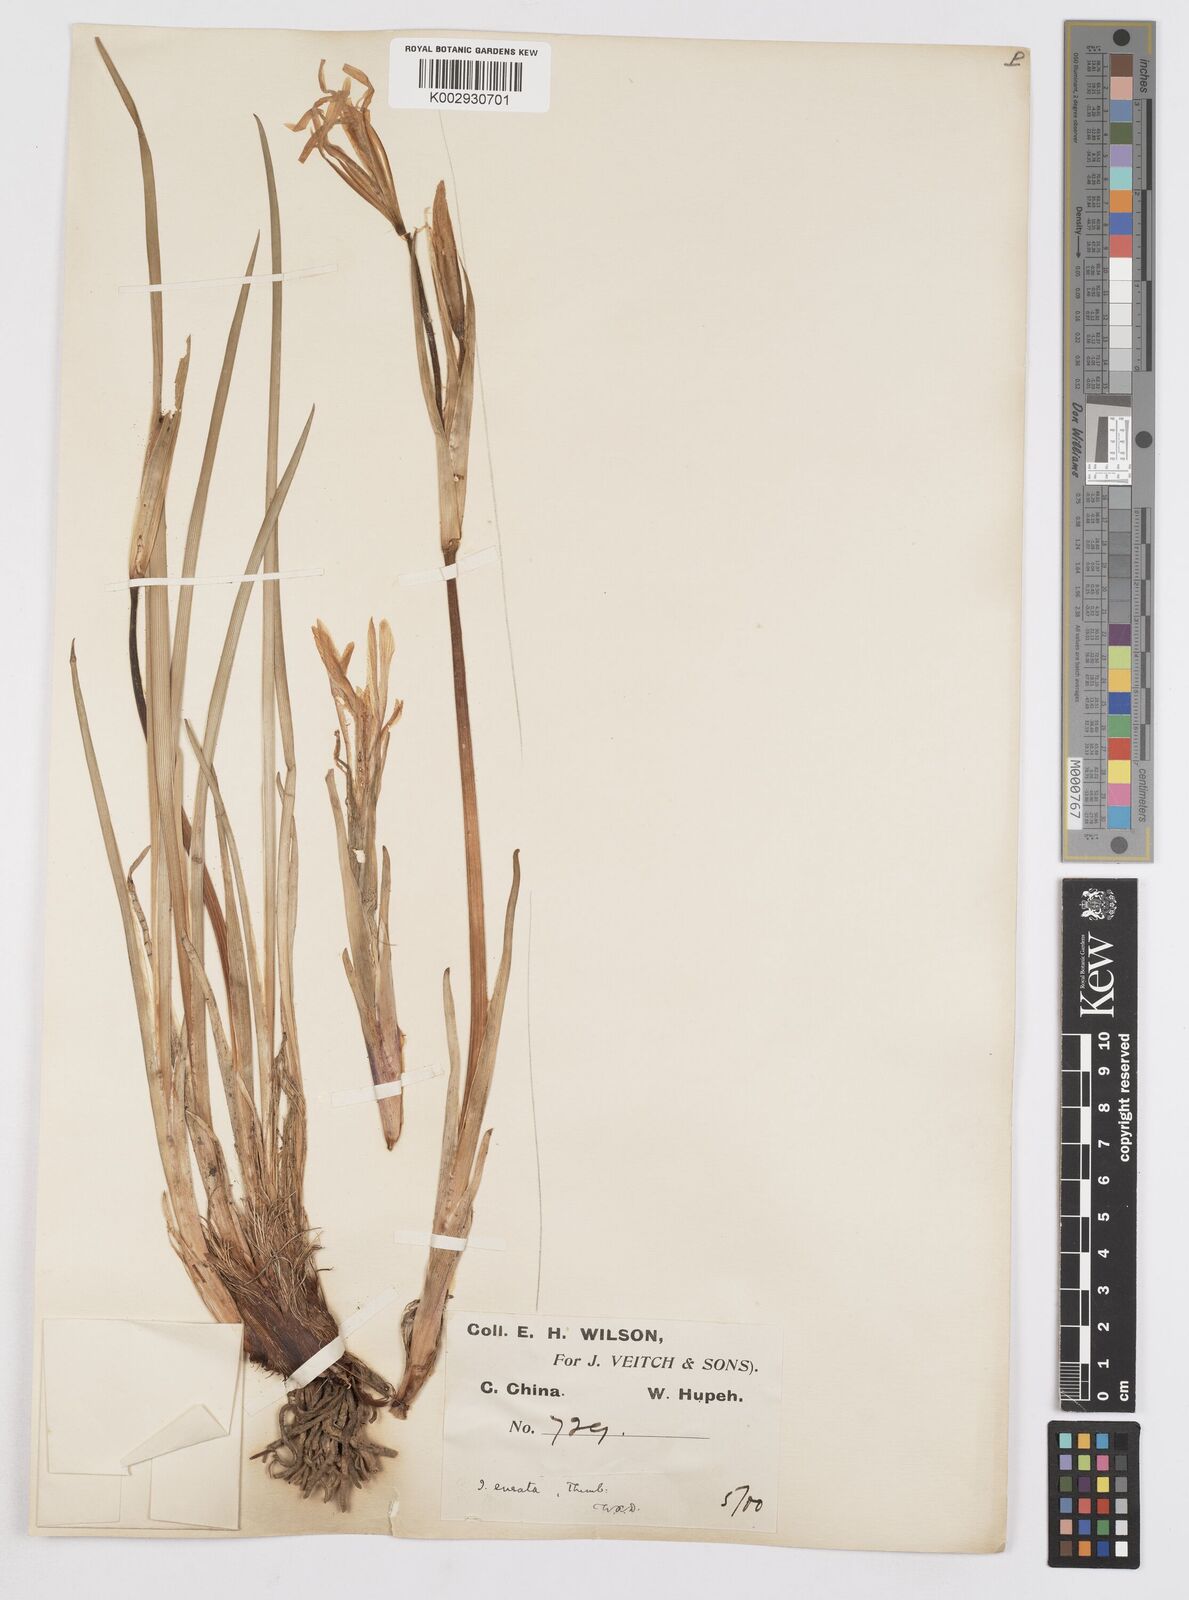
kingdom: Plantae
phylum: Tracheophyta
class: Liliopsida
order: Asparagales
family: Iridaceae
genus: Iris
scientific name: Iris ensata
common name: Beaked iris
